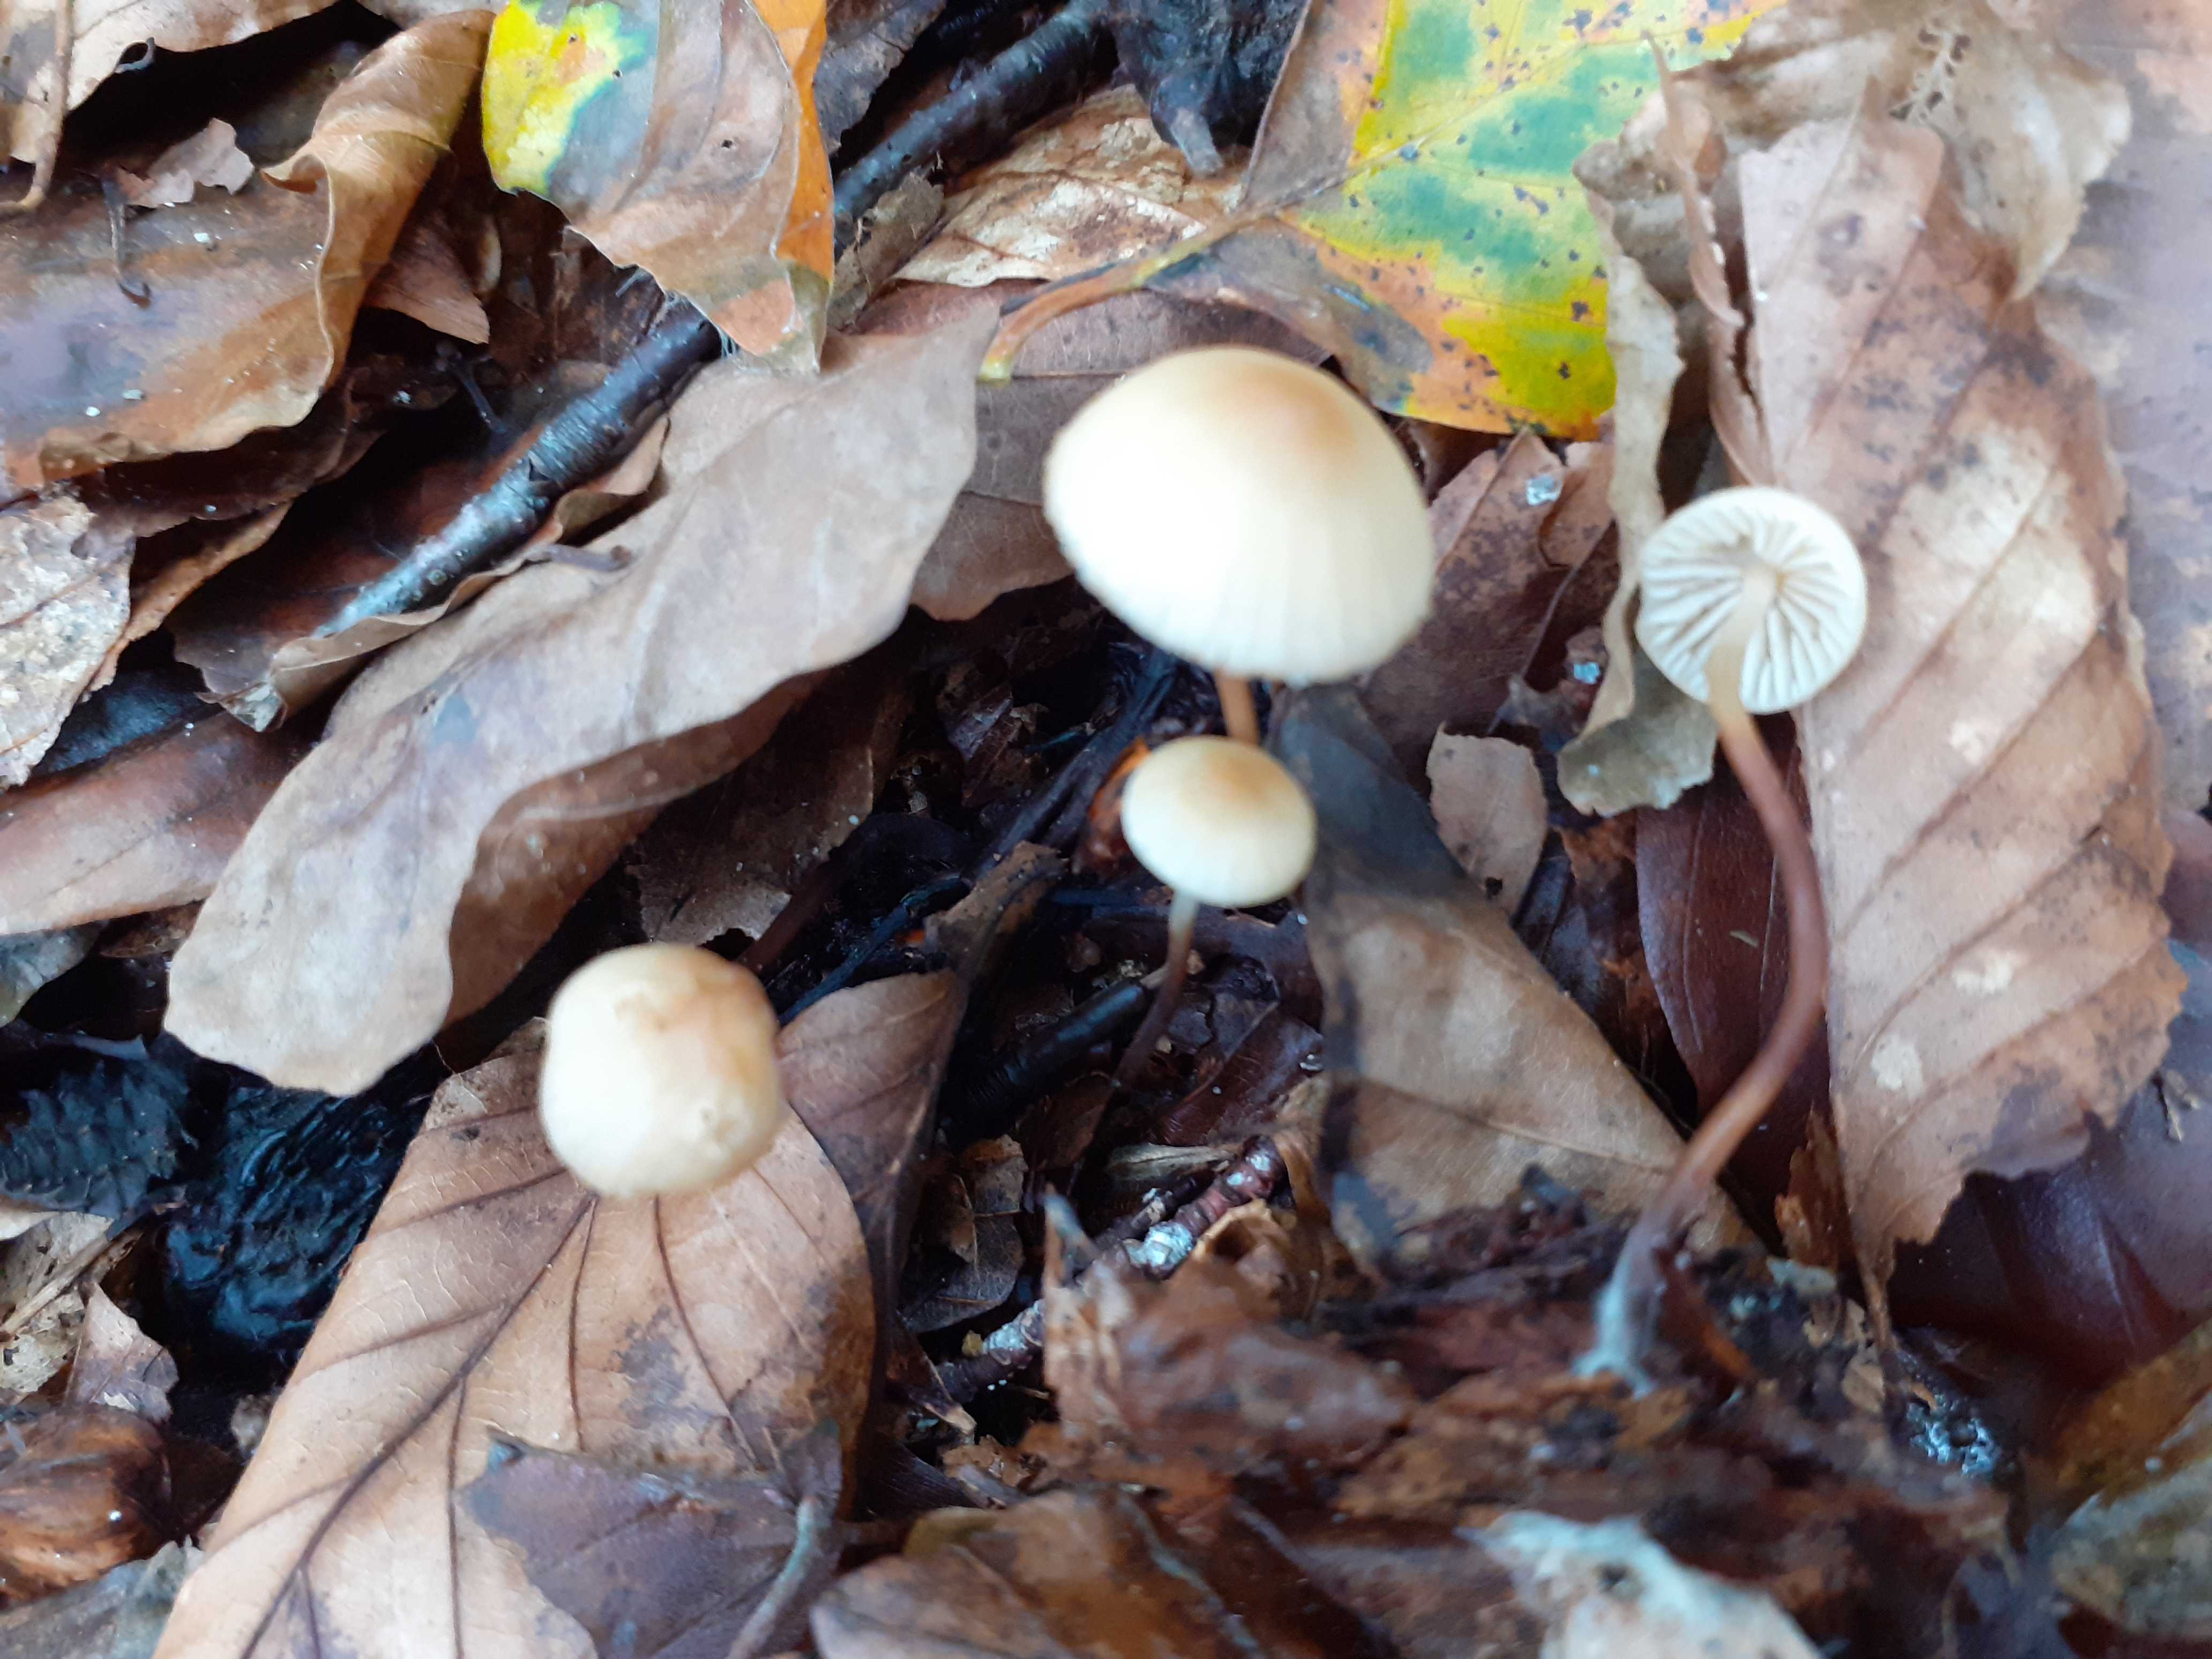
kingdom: Fungi
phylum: Basidiomycota
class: Agaricomycetes
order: Agaricales
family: Marasmiaceae
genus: Marasmius
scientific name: Marasmius torquescens
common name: filtfodet bruskhat
